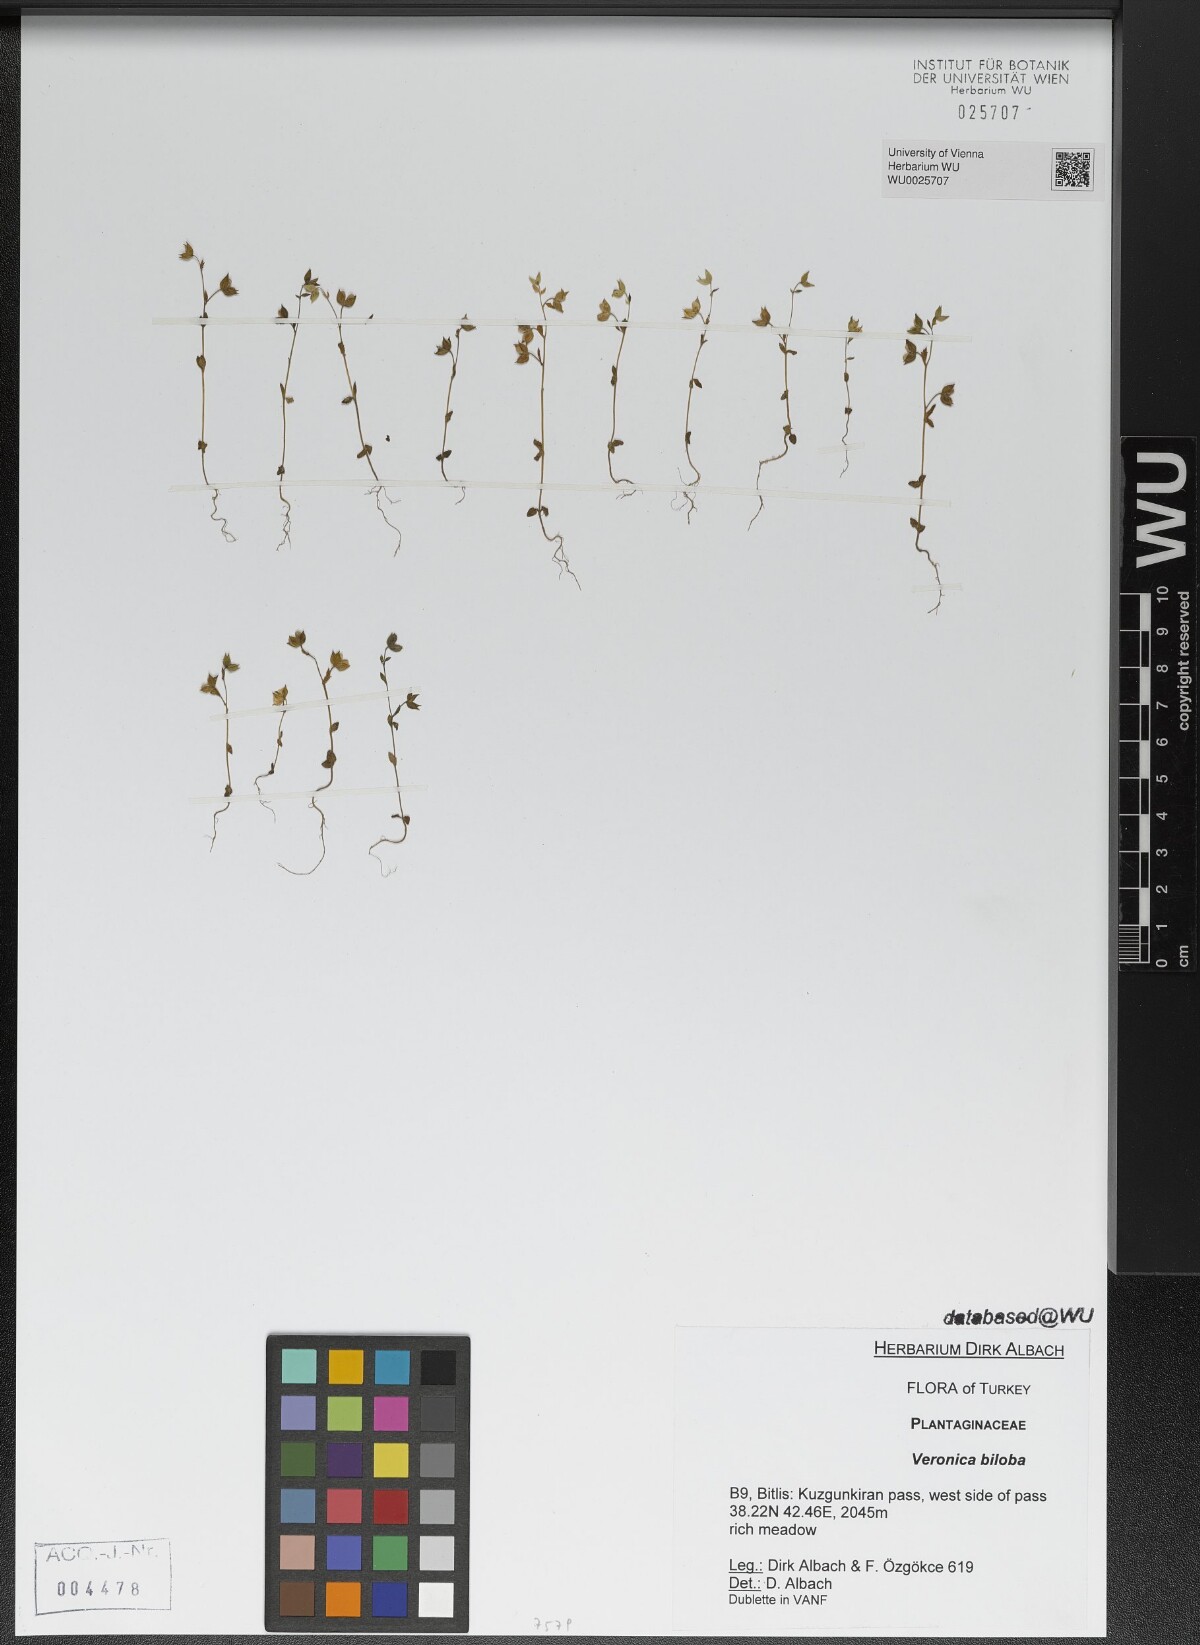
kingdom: Plantae
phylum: Tracheophyta
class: Magnoliopsida
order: Lamiales
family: Plantaginaceae
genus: Veronica
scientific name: Veronica biloba
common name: Twolobe speedwell
